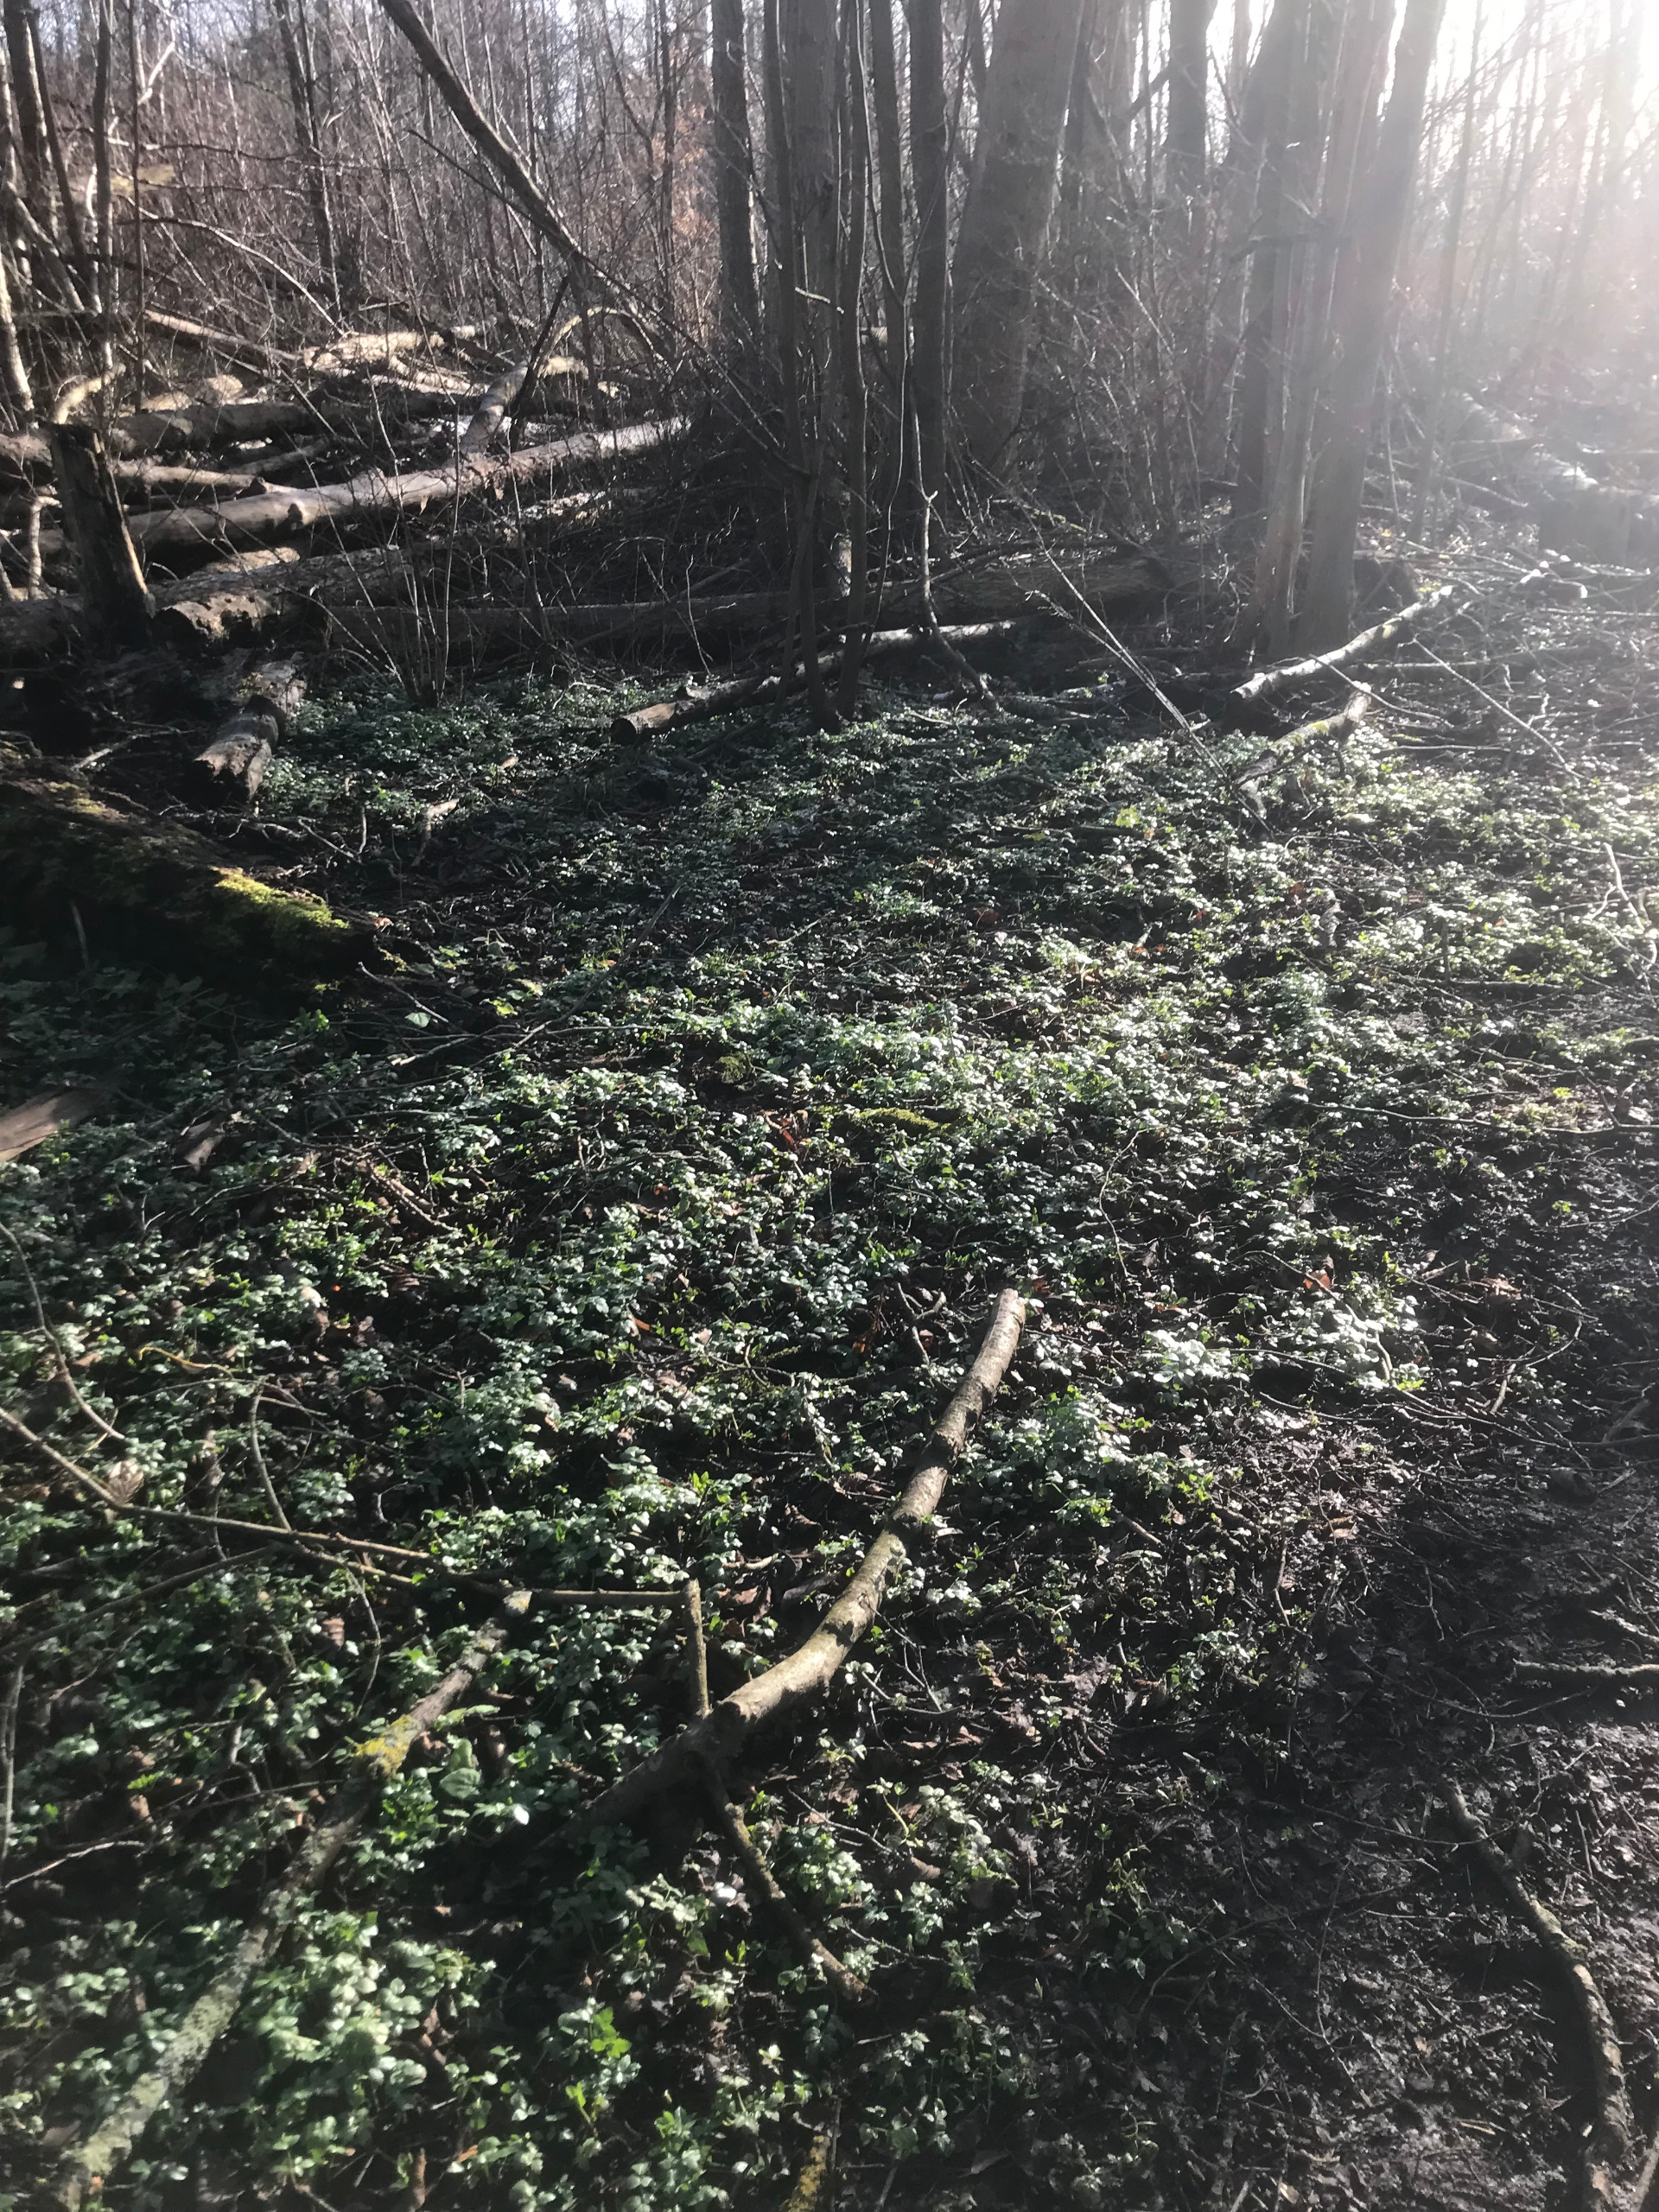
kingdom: Plantae
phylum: Tracheophyta
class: Magnoliopsida
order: Apiales
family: Apiaceae
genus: Smyrnium
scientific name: Smyrnium perfoliatum
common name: Lundgylden
